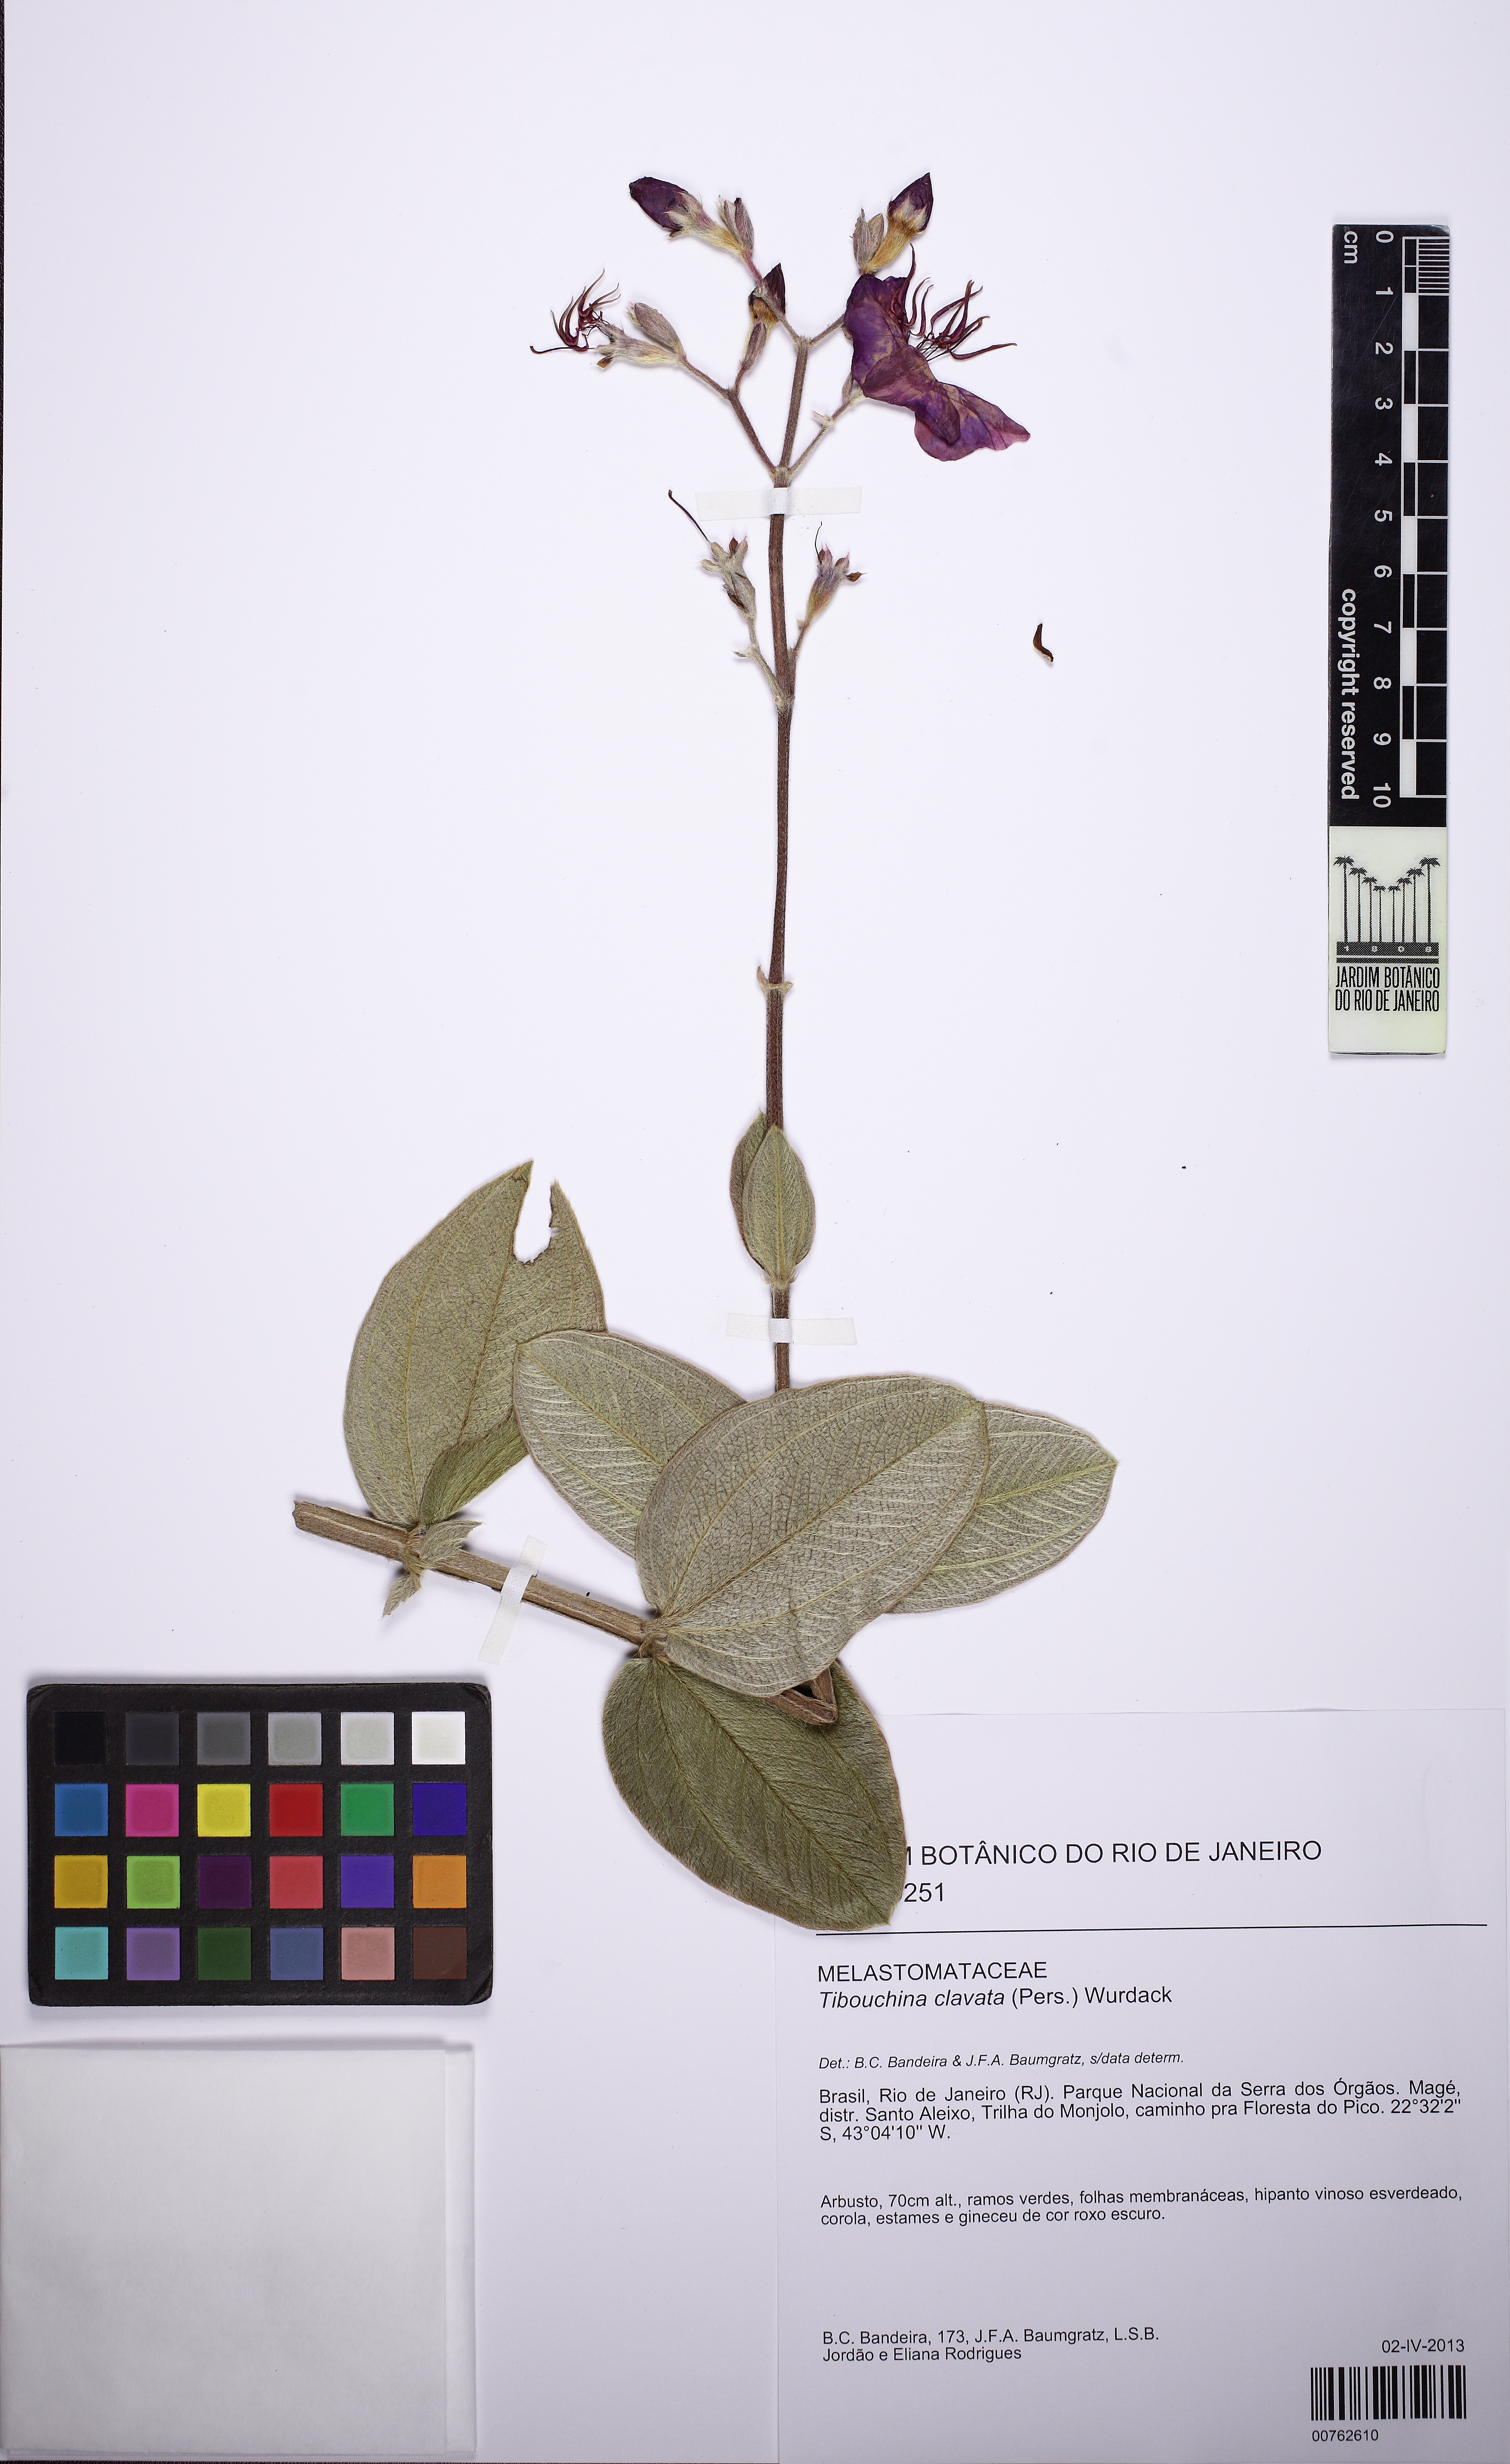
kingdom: Plantae
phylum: Tracheophyta
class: Magnoliopsida
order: Myrtales
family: Melastomataceae
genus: Pleroma
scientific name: Pleroma clavatum
